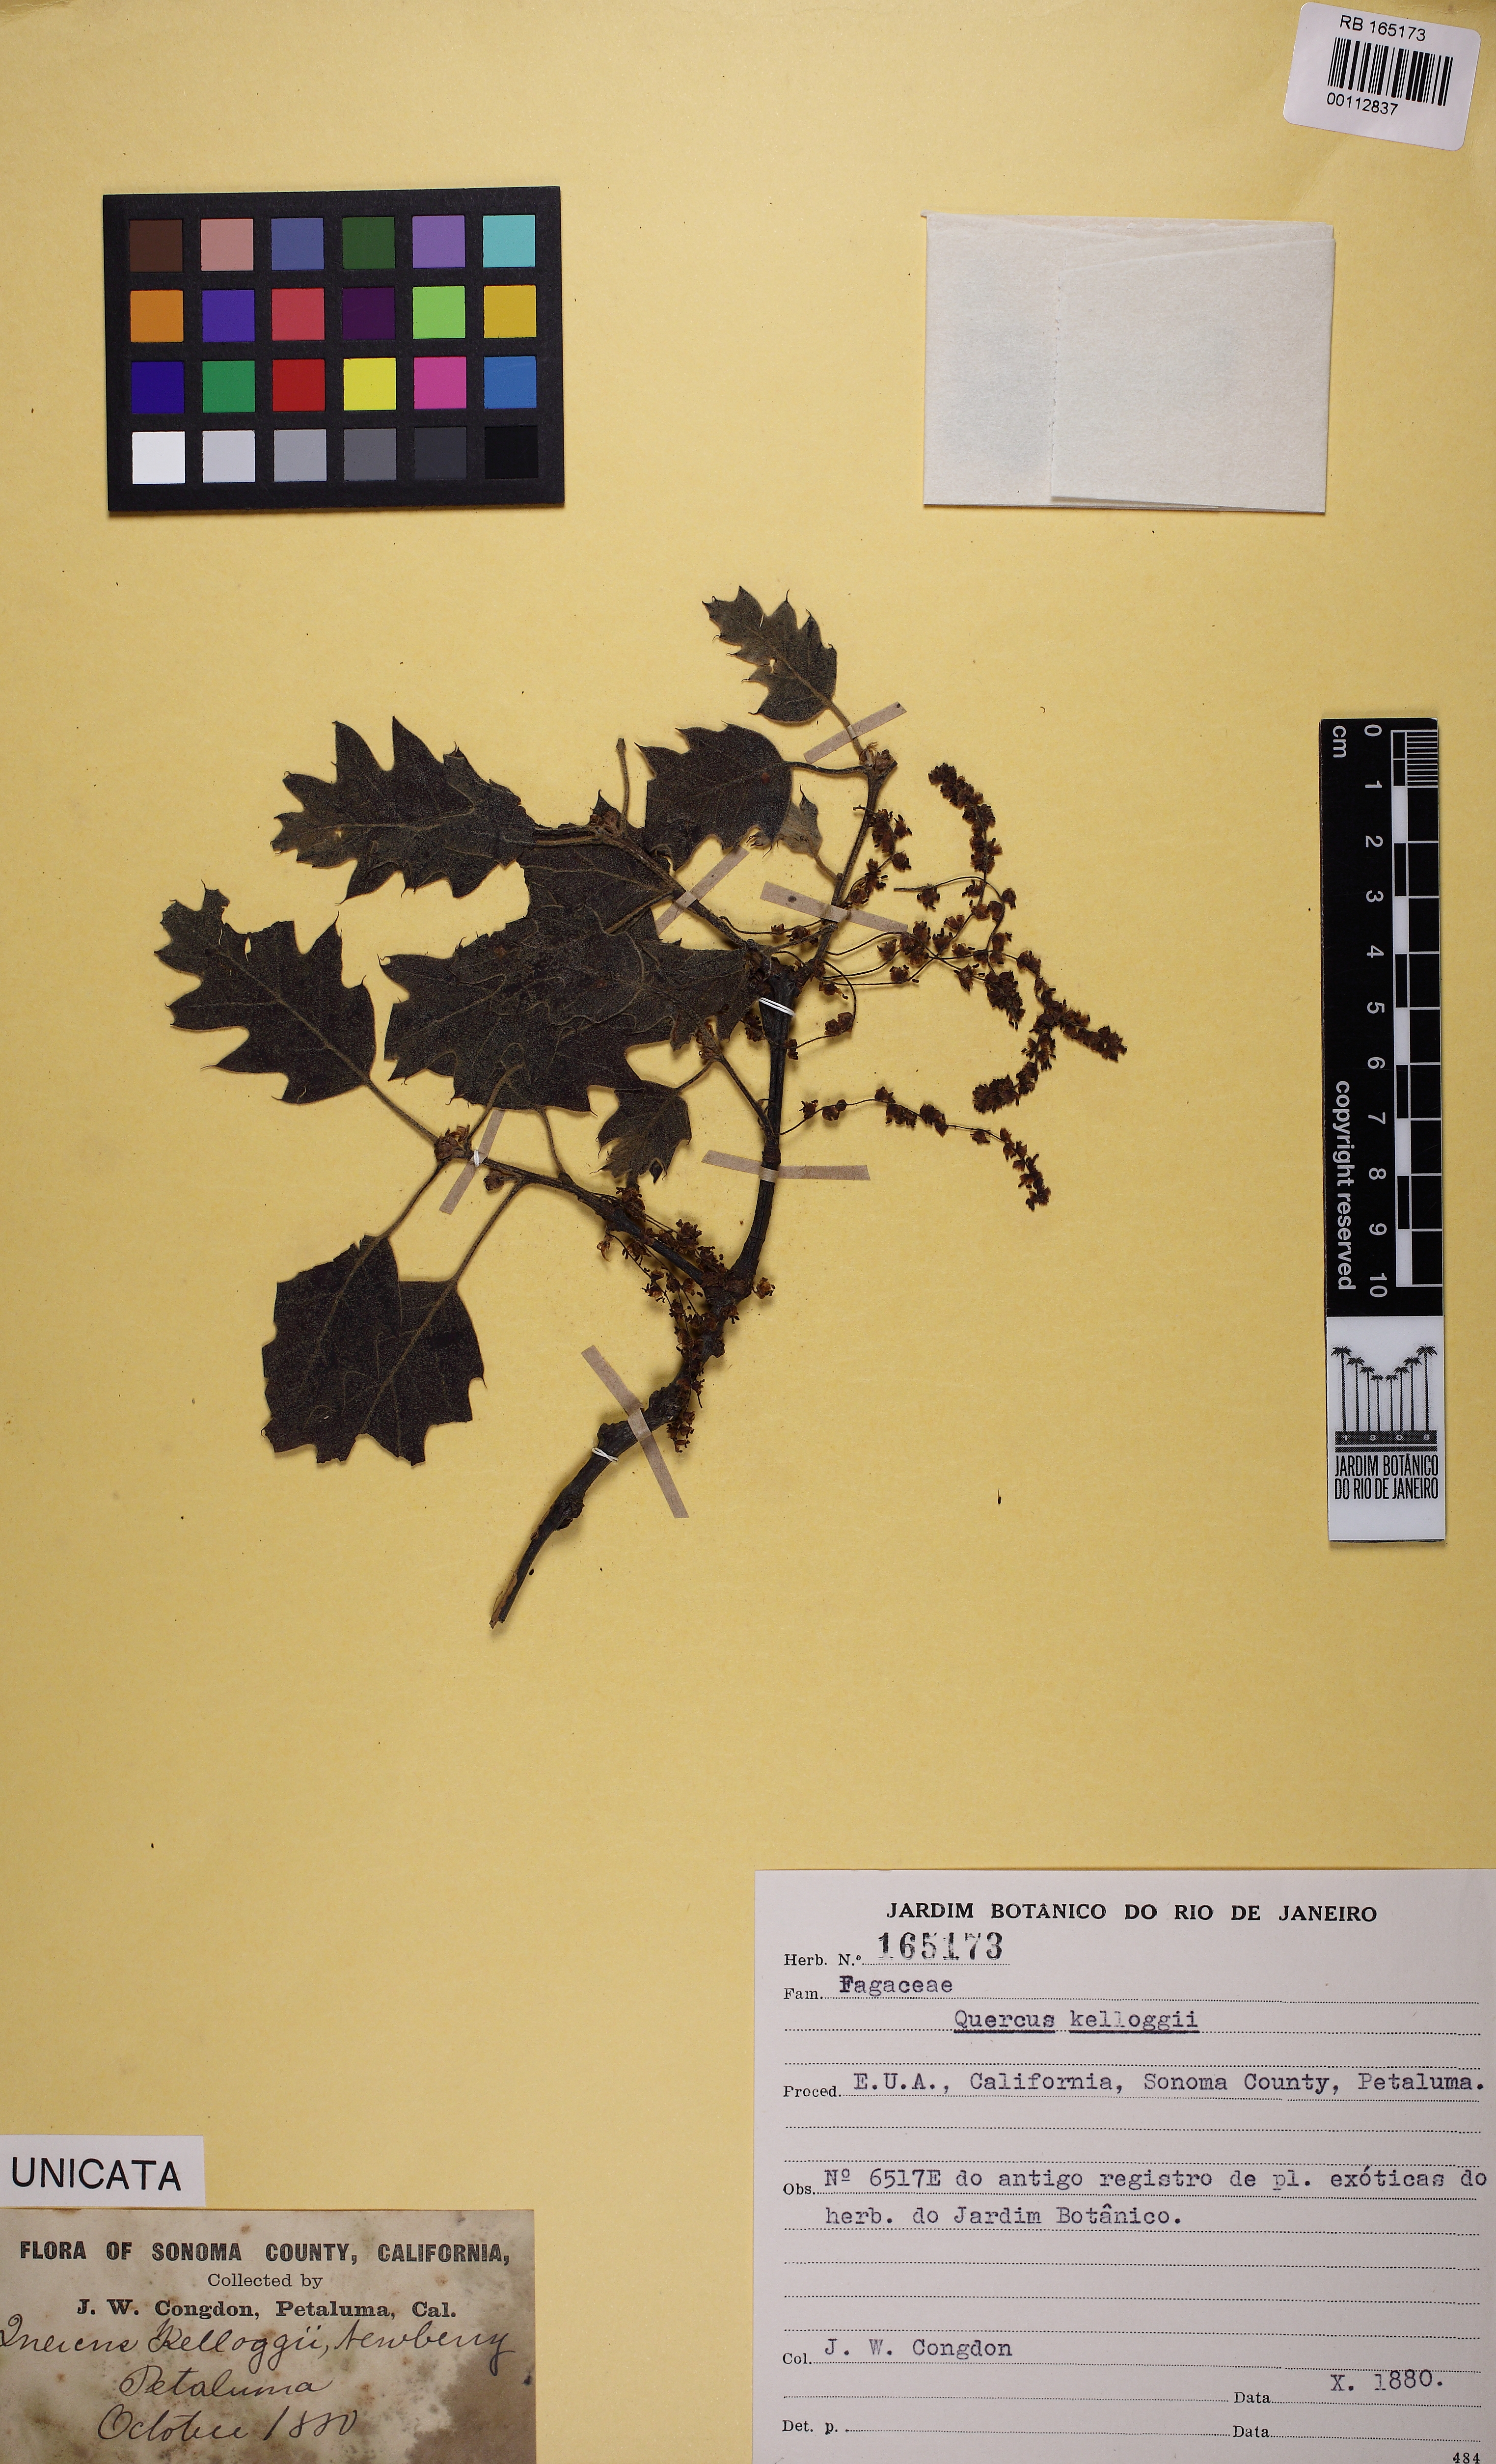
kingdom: Plantae
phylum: Tracheophyta
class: Magnoliopsida
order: Fagales
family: Fagaceae
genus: Quercus
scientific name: Quercus kelloggii
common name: California black oak
